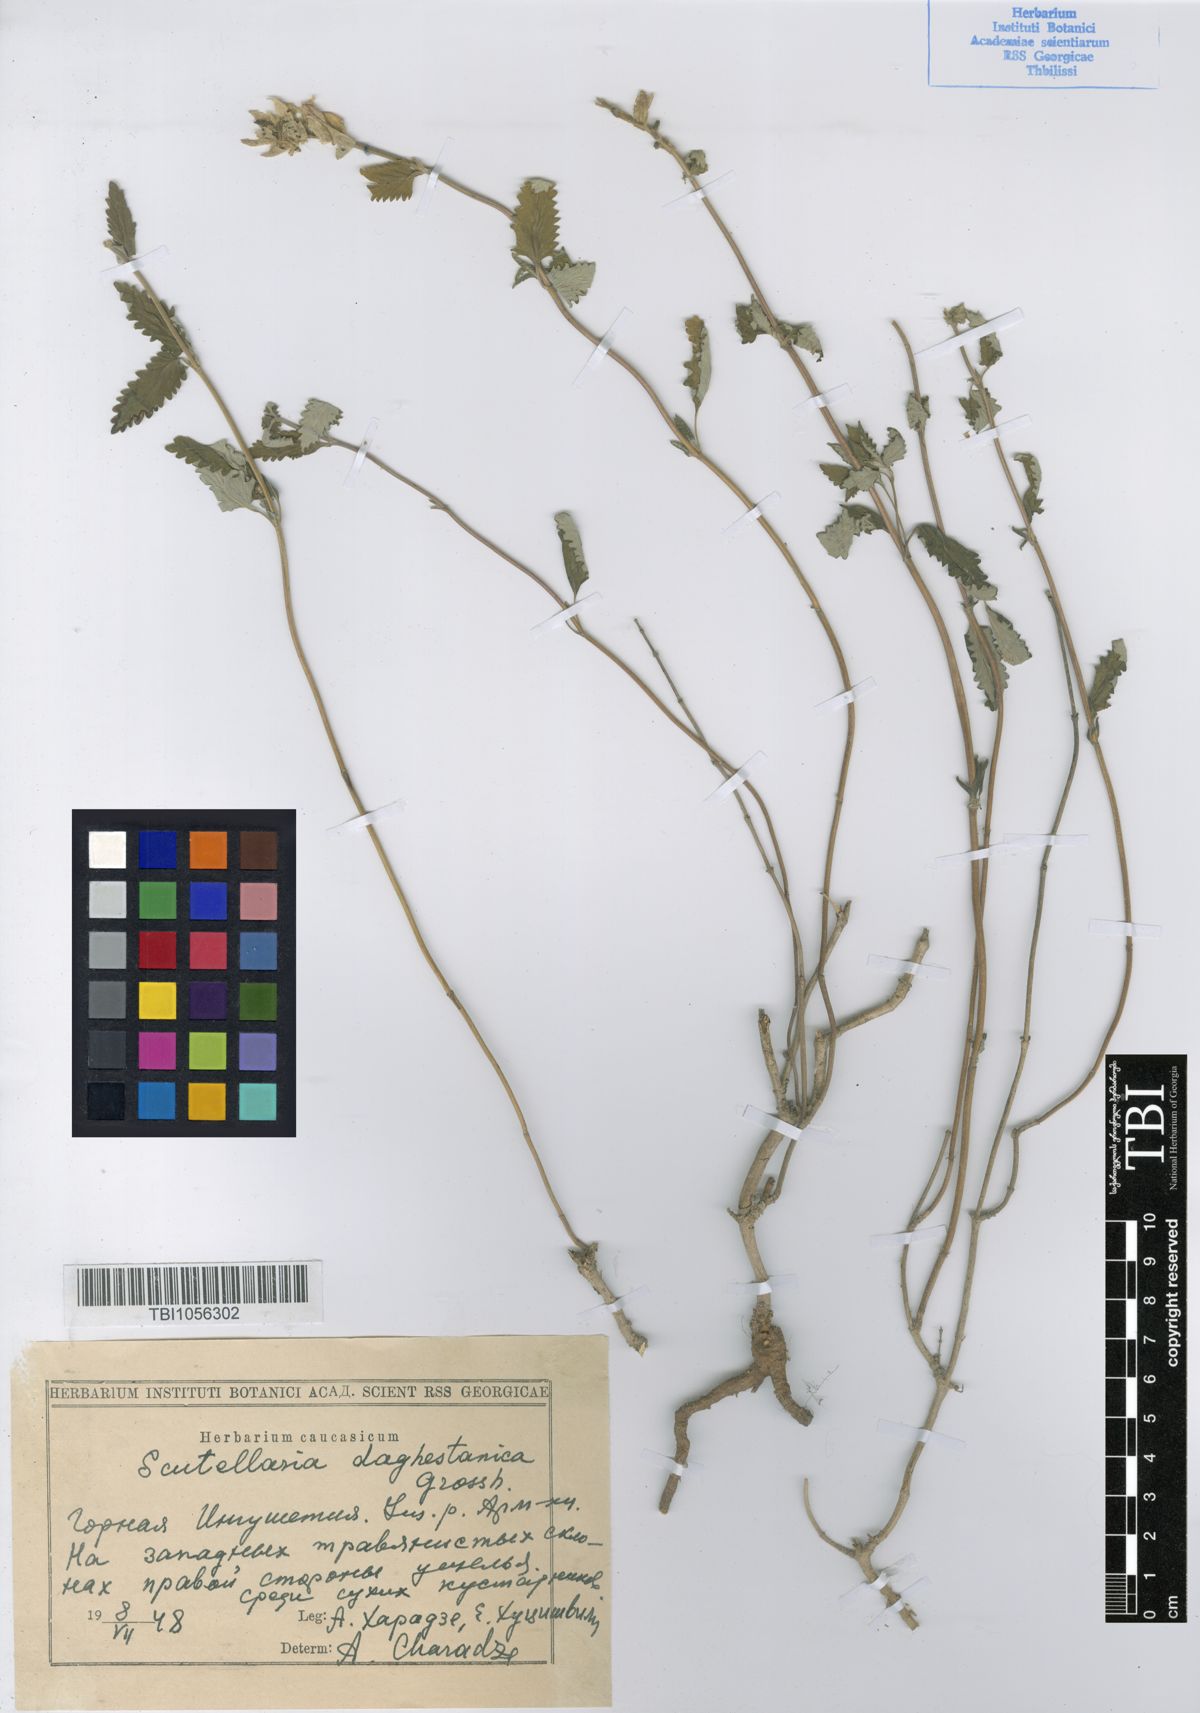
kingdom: Plantae
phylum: Tracheophyta
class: Magnoliopsida
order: Lamiales
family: Lamiaceae
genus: Scutellaria
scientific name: Scutellaria daghestanica
